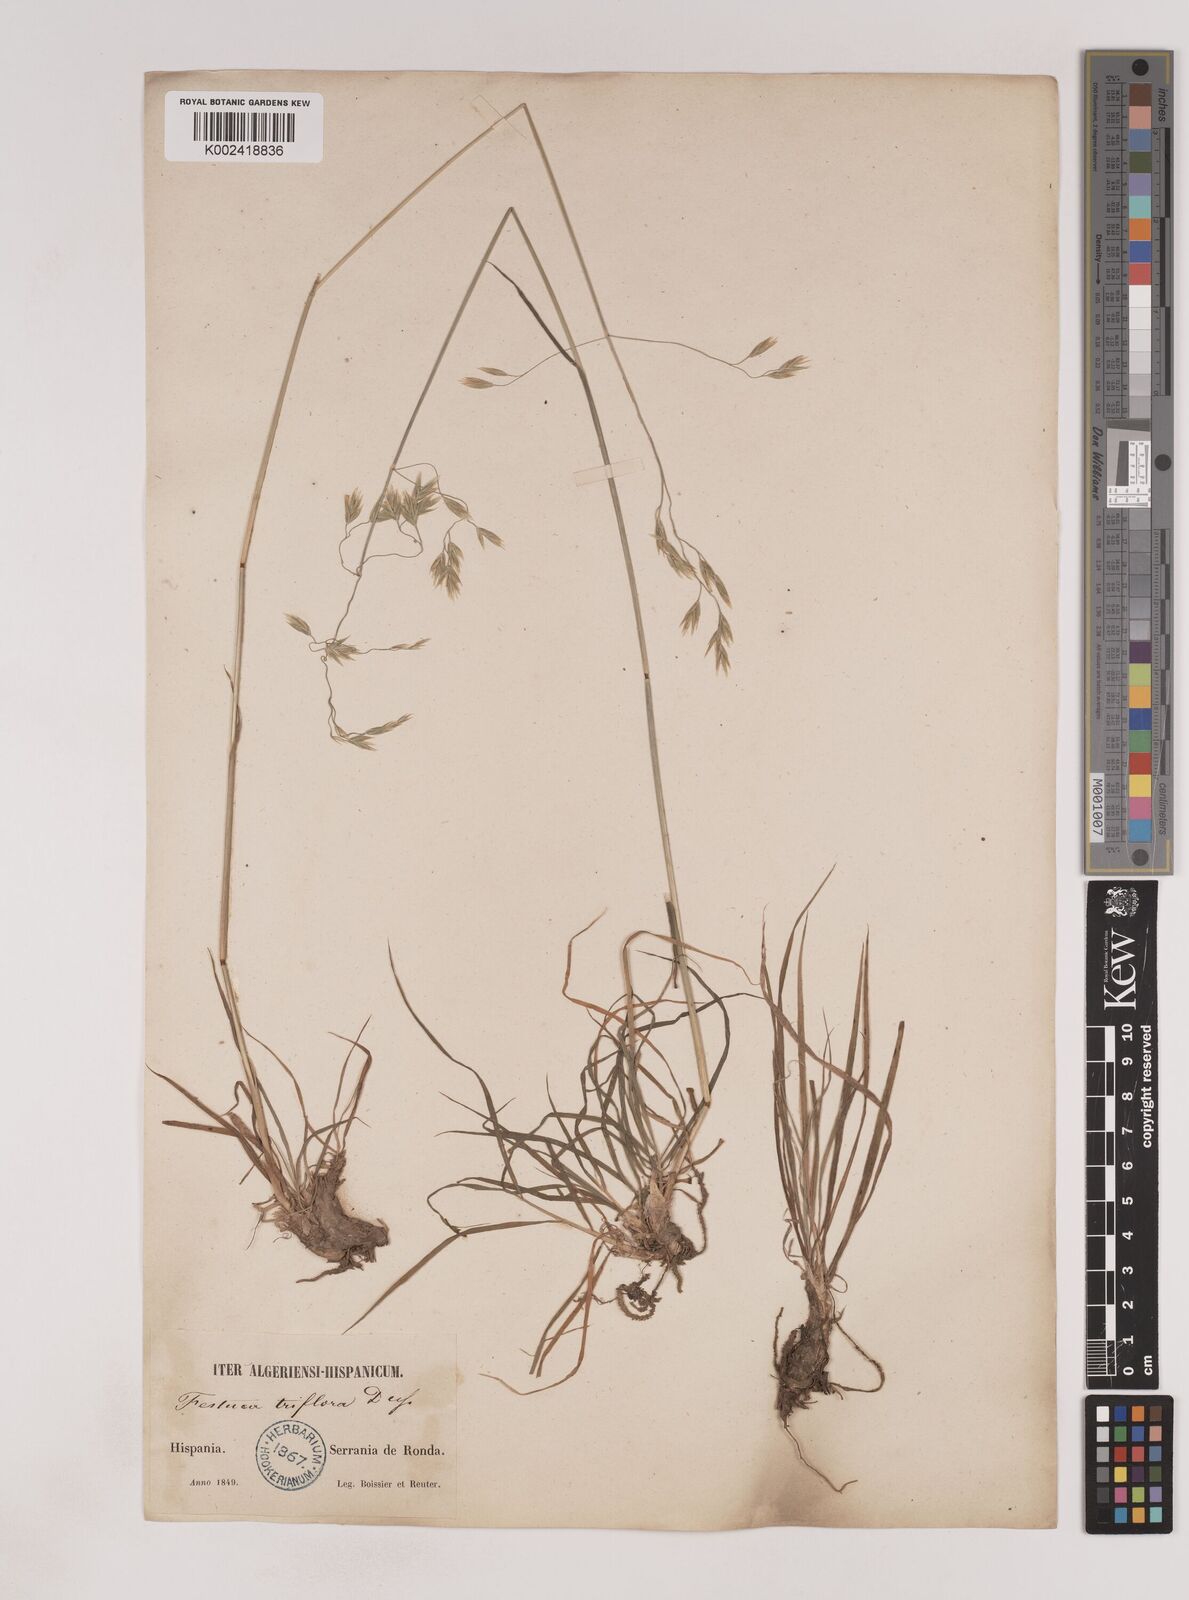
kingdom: Plantae
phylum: Tracheophyta
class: Liliopsida
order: Poales
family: Poaceae
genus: Patzkea
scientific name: Patzkea patula
